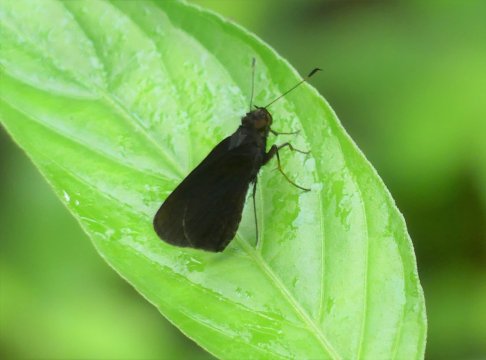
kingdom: Animalia
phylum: Arthropoda
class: Insecta
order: Lepidoptera
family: Hesperiidae
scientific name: Hesperiidae
